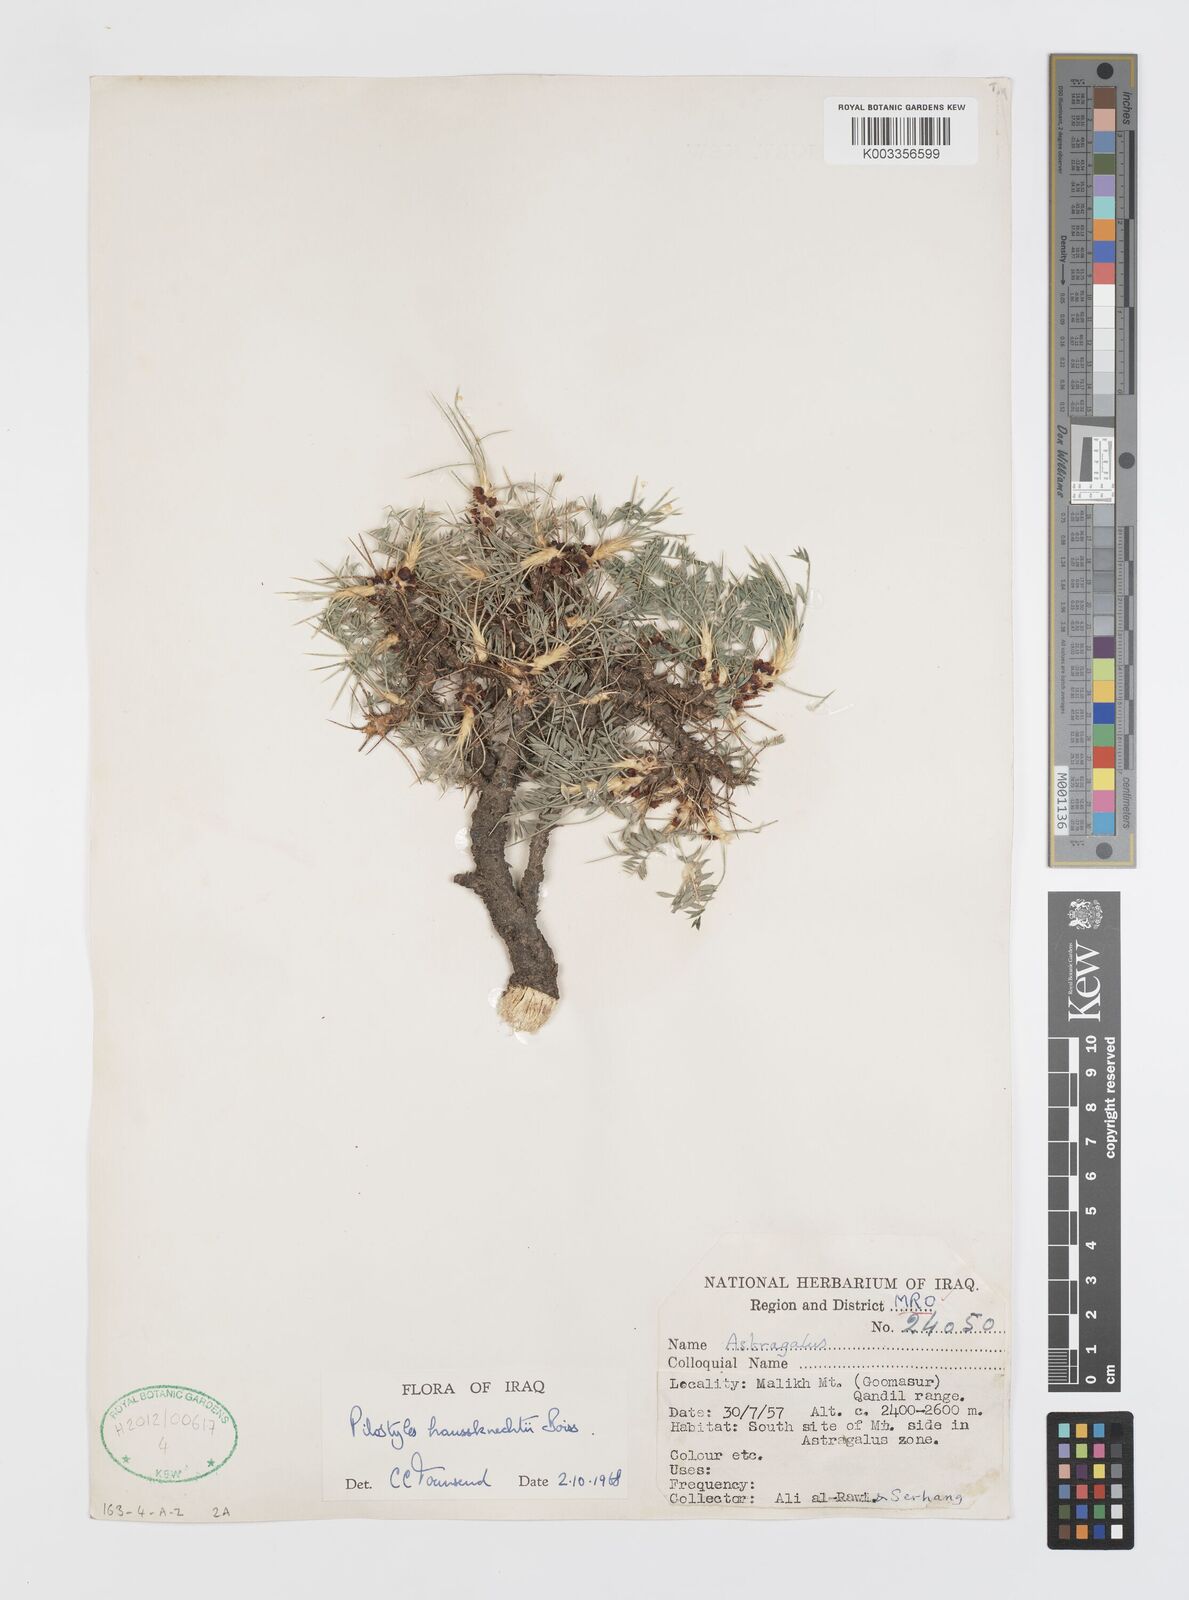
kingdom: Plantae
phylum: Tracheophyta
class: Magnoliopsida
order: Cucurbitales
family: Apodanthaceae
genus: Pilostyles
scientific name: Pilostyles haussknechtii
